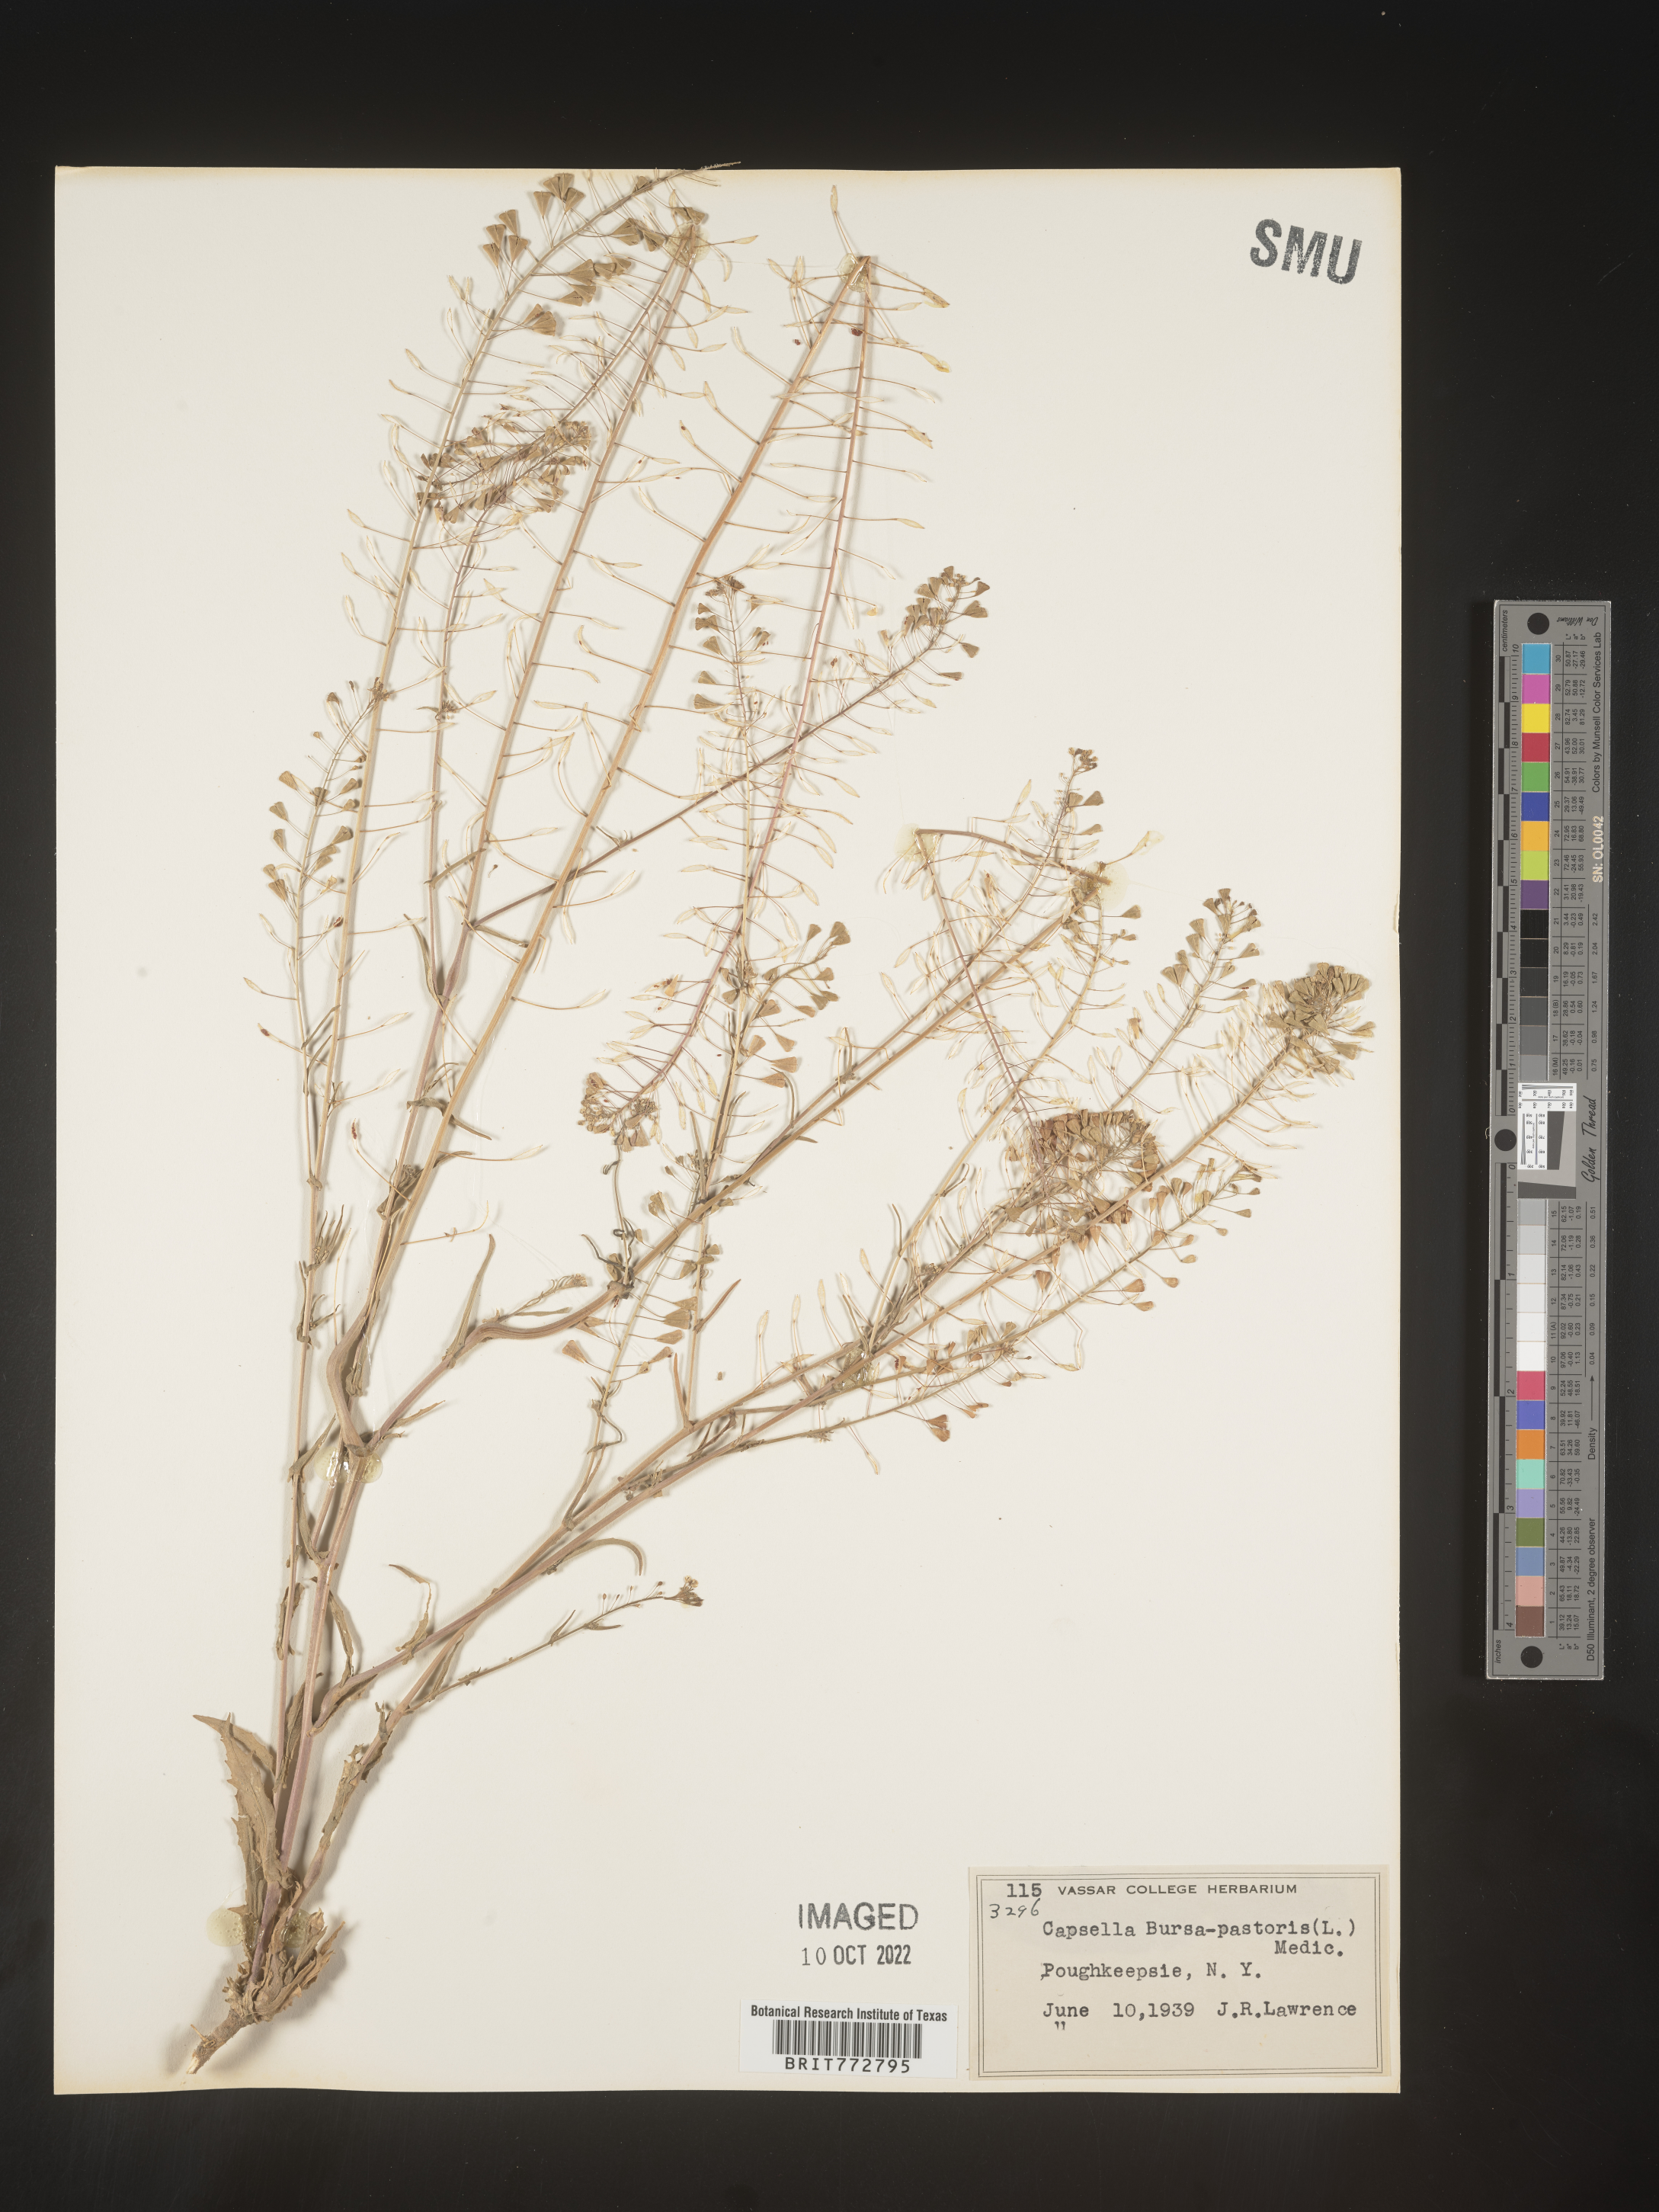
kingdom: Plantae
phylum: Tracheophyta
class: Magnoliopsida
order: Brassicales
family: Brassicaceae
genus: Capsella
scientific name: Capsella bursa-pastoris
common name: Shepherd's purse
